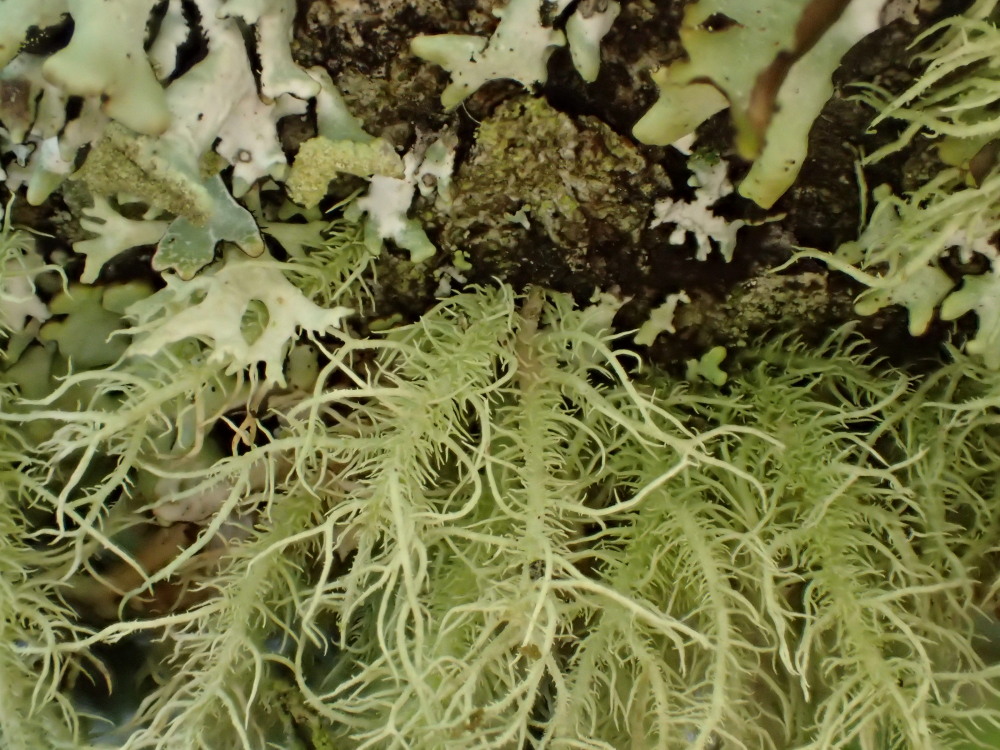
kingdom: Fungi
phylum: Ascomycota
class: Lecanoromycetes
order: Lecanorales
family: Parmeliaceae
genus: Usnea
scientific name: Usnea hirta
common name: liden skæglav
